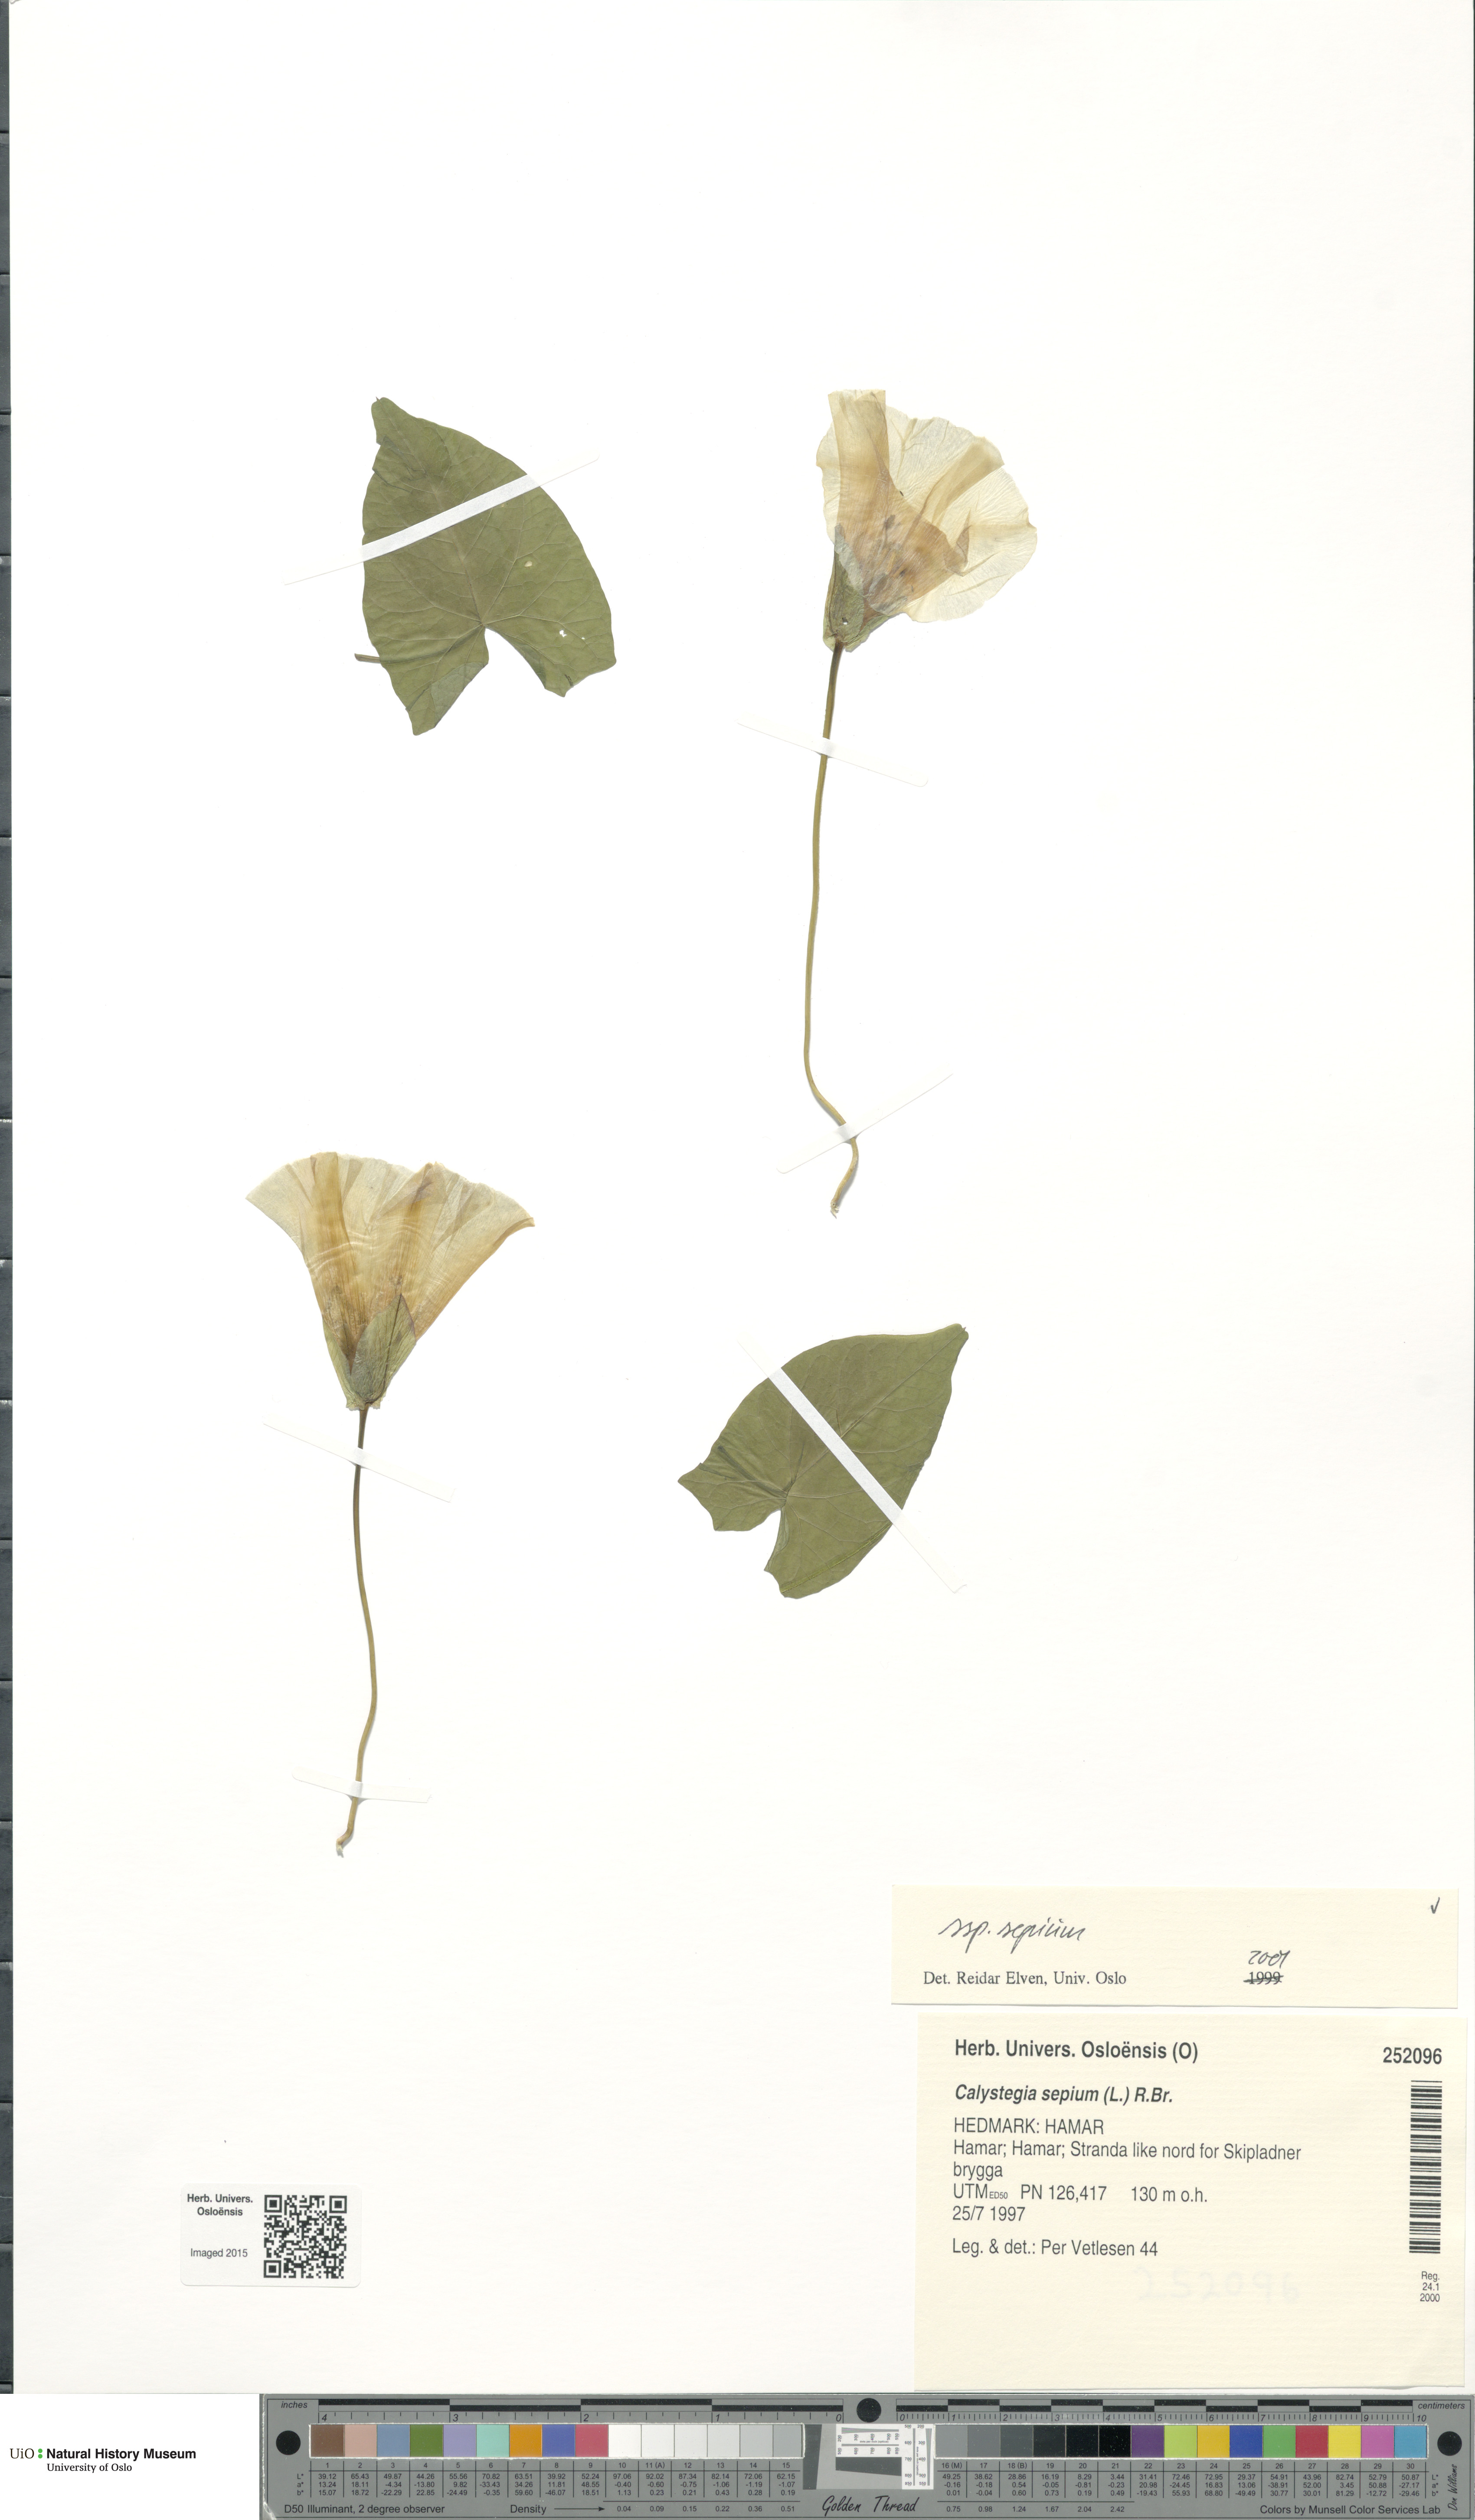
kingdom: Plantae
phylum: Tracheophyta
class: Magnoliopsida
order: Solanales
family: Convolvulaceae
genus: Calystegia
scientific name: Calystegia sepium
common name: Hedge bindweed
